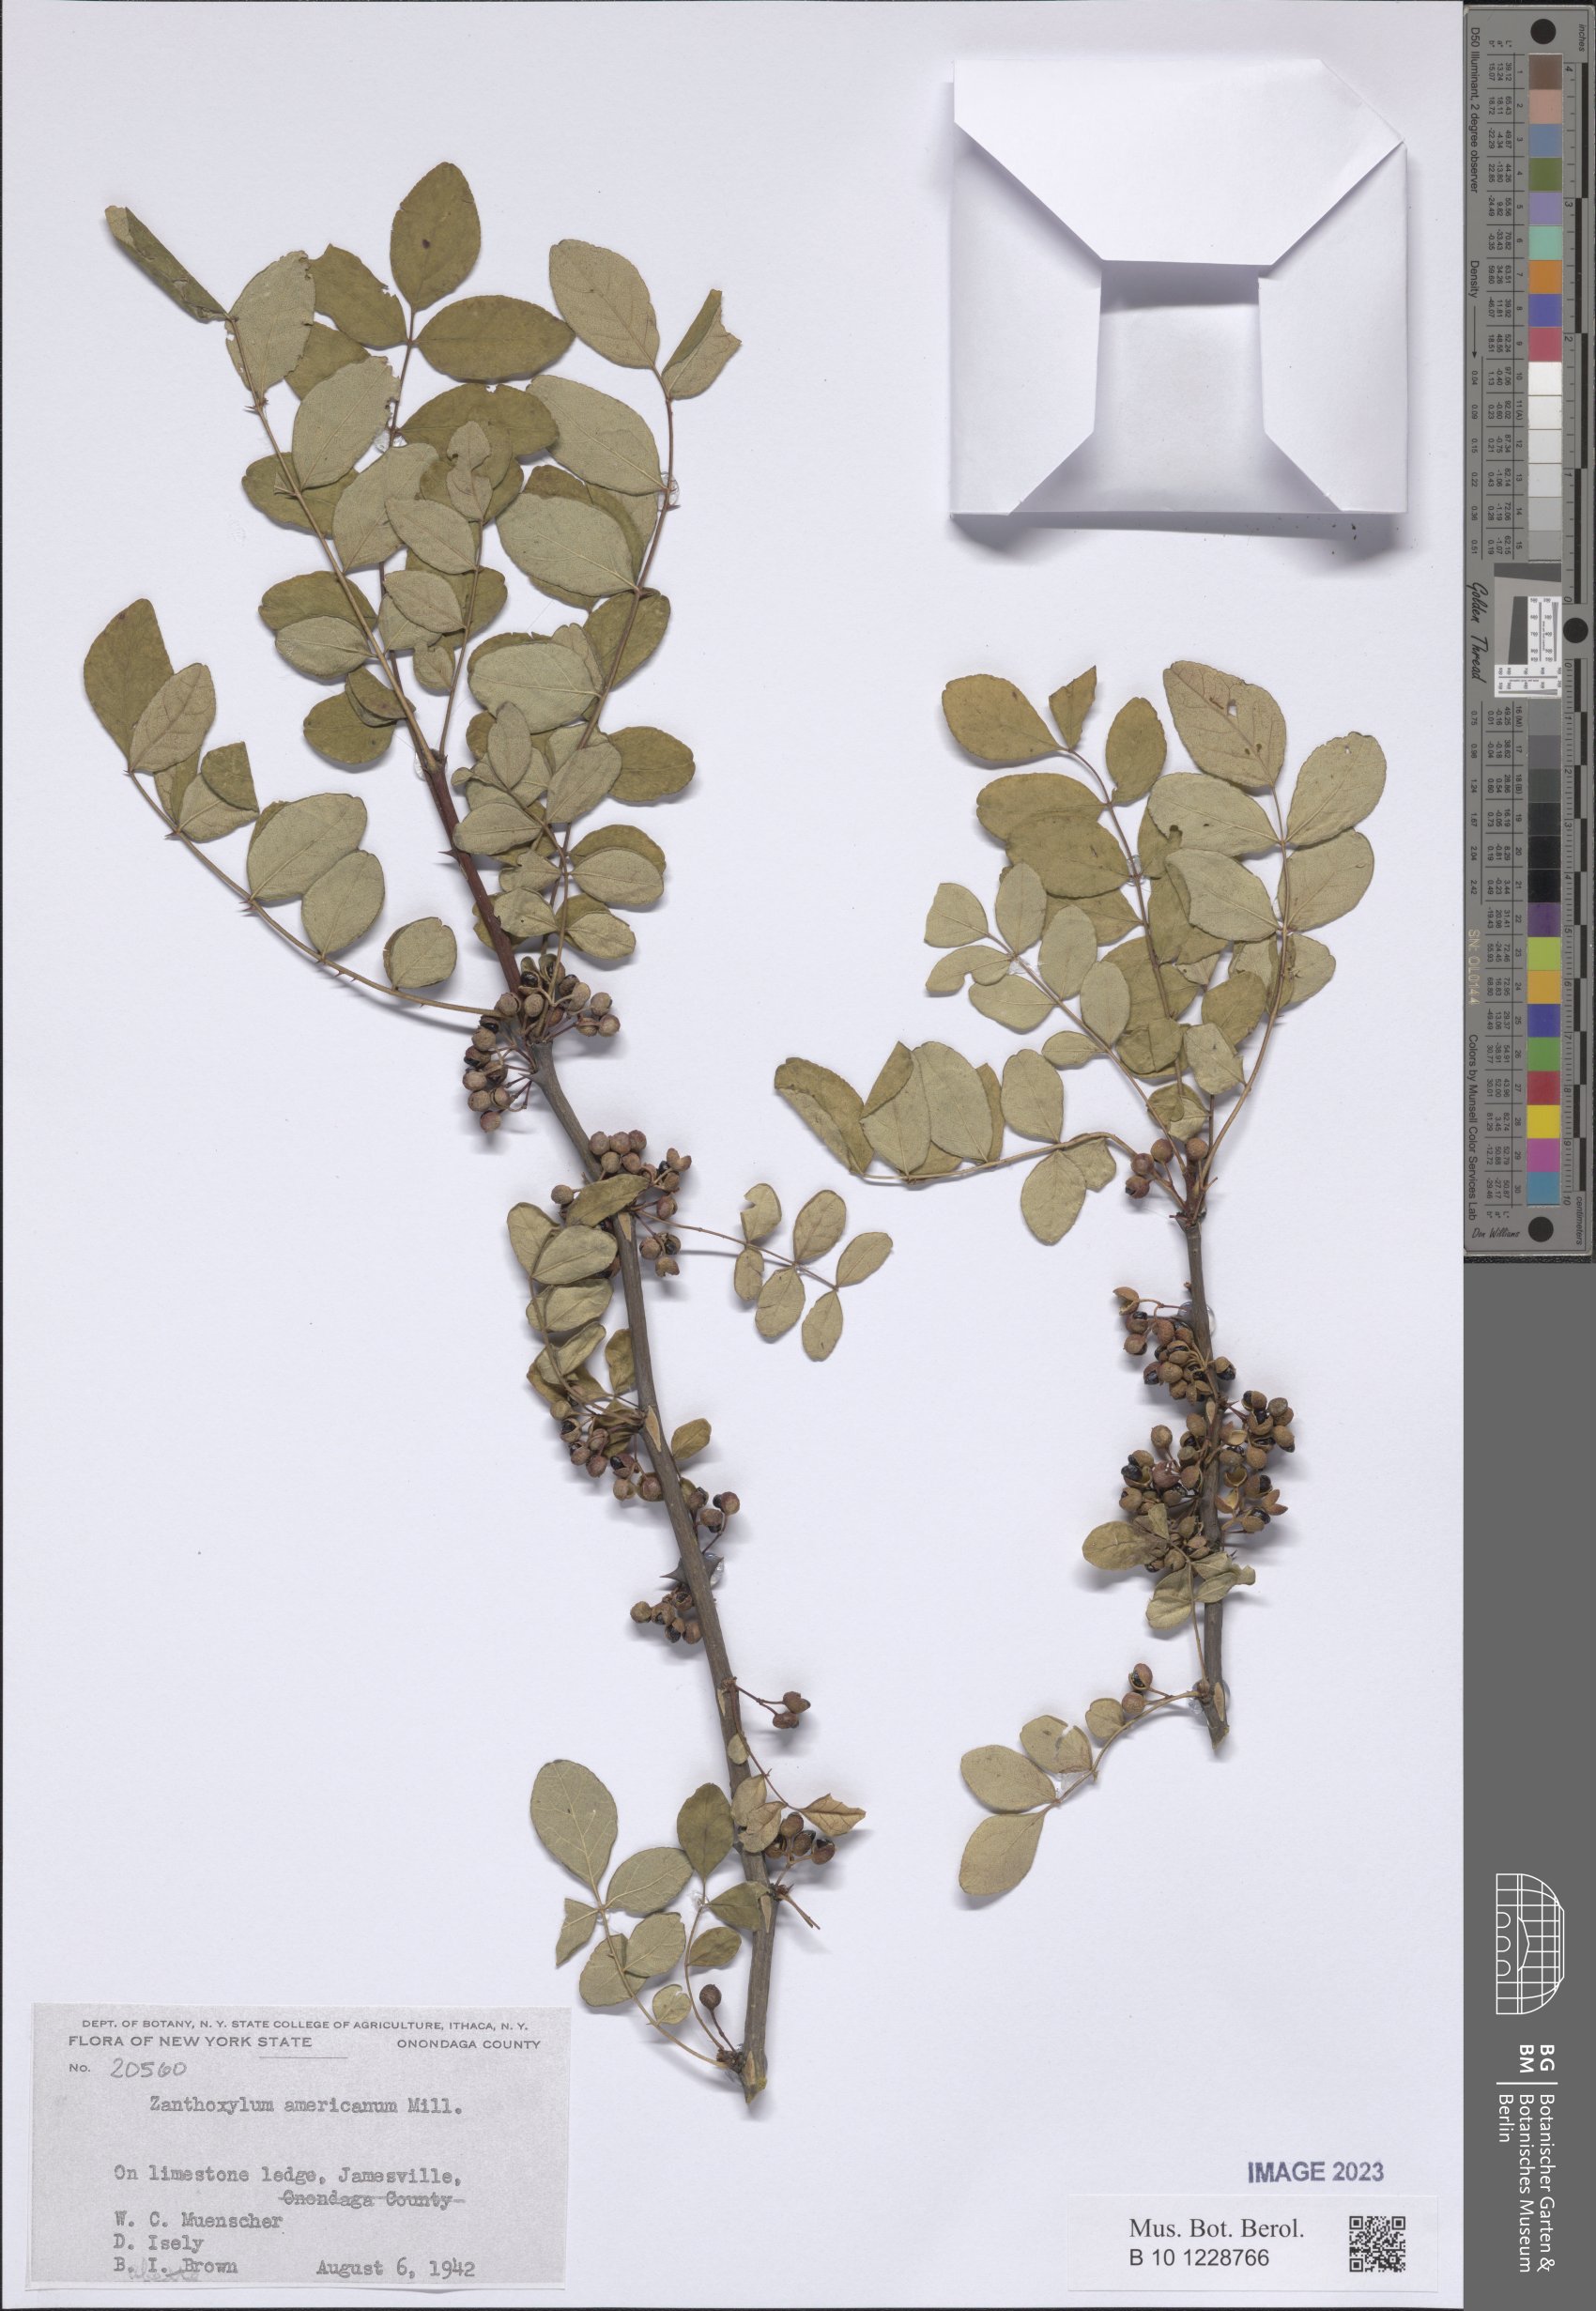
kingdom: Plantae
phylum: Tracheophyta
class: Magnoliopsida
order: Sapindales
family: Rutaceae
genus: Zanthoxylum
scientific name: Zanthoxylum americanum
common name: Northern prickly-ash
